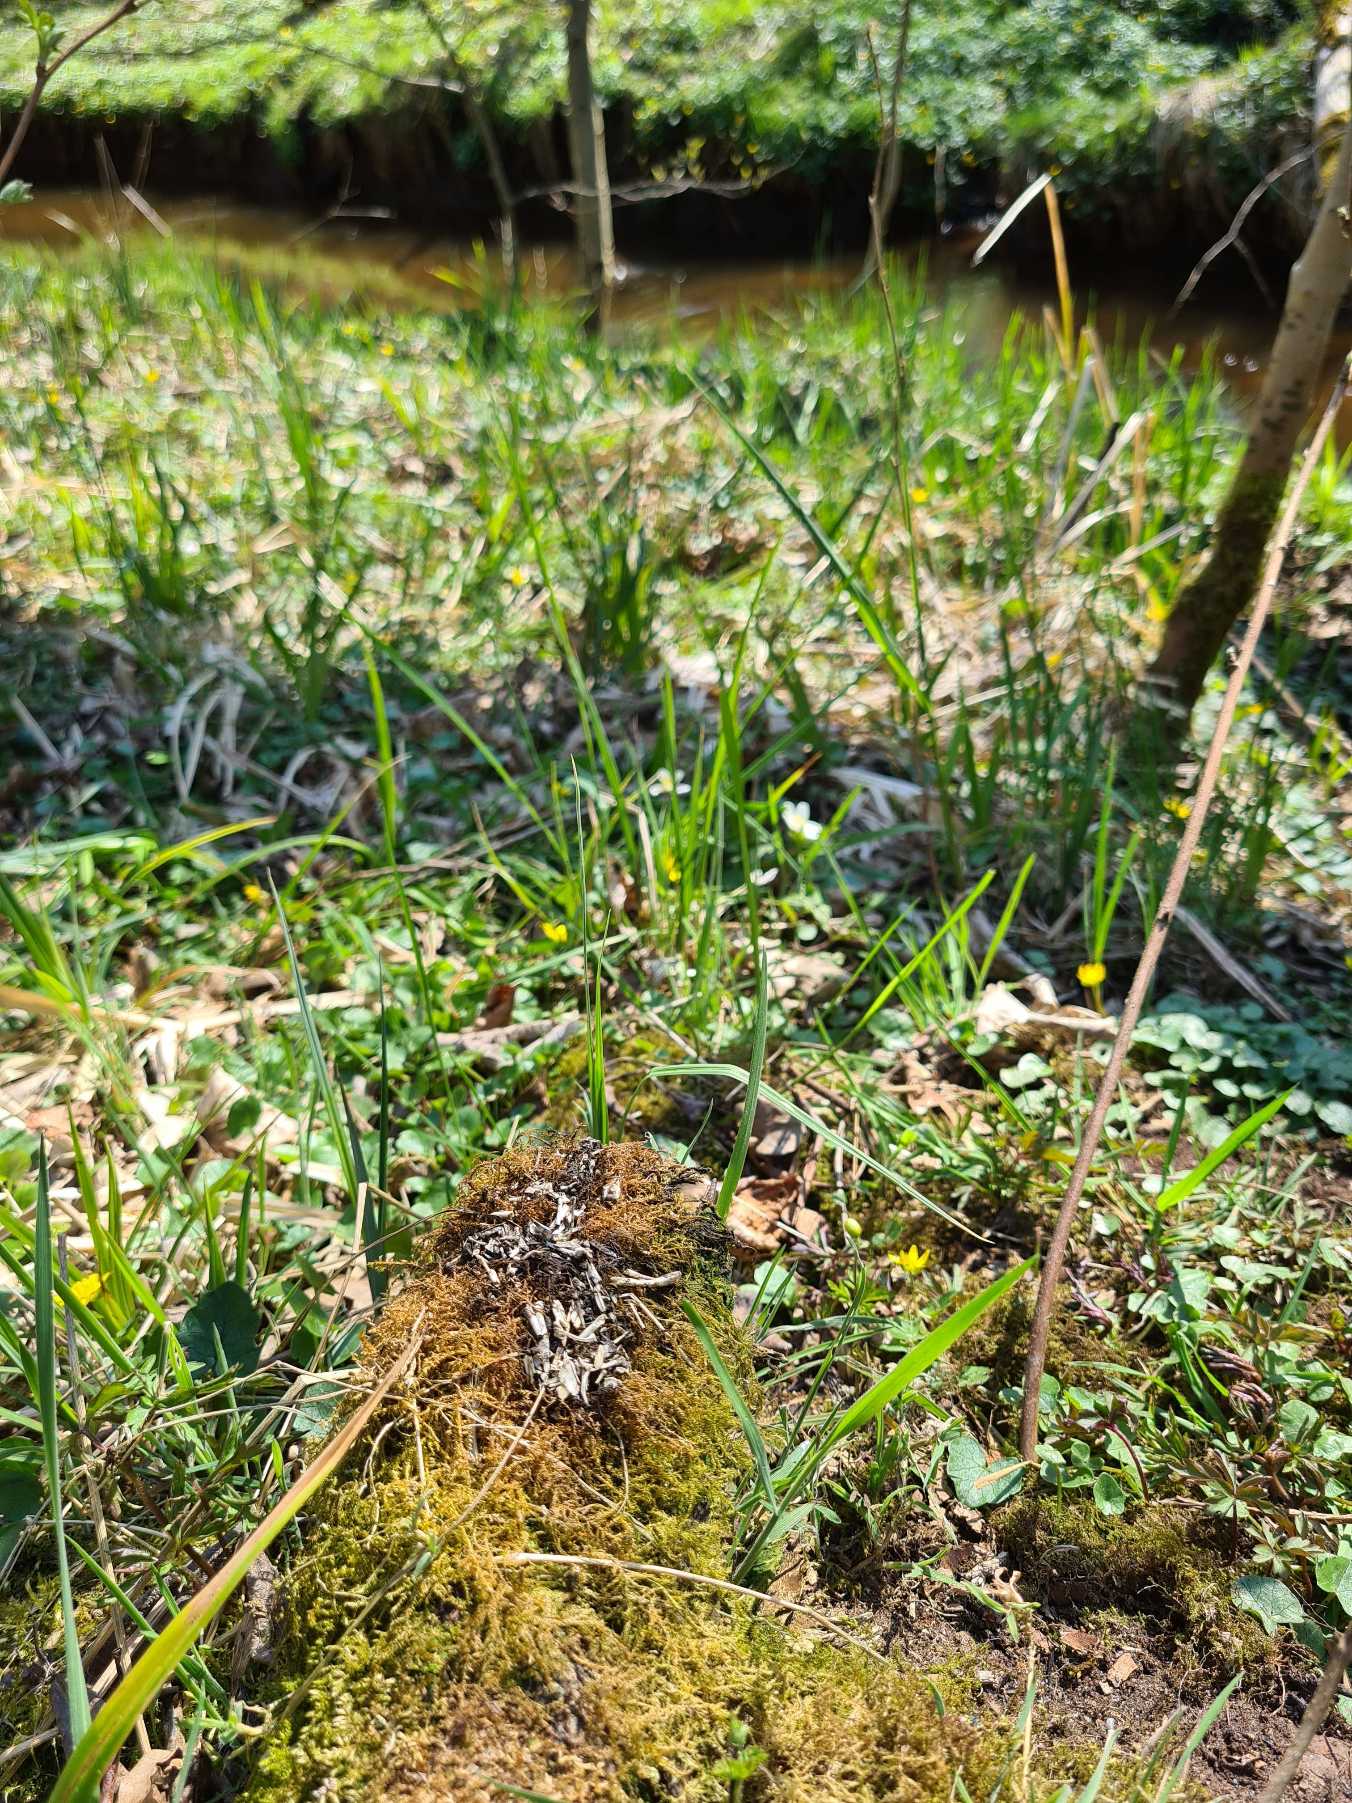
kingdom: Animalia
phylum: Chordata
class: Mammalia
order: Carnivora
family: Mustelidae
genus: Lutra
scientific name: Lutra lutra
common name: Odder
